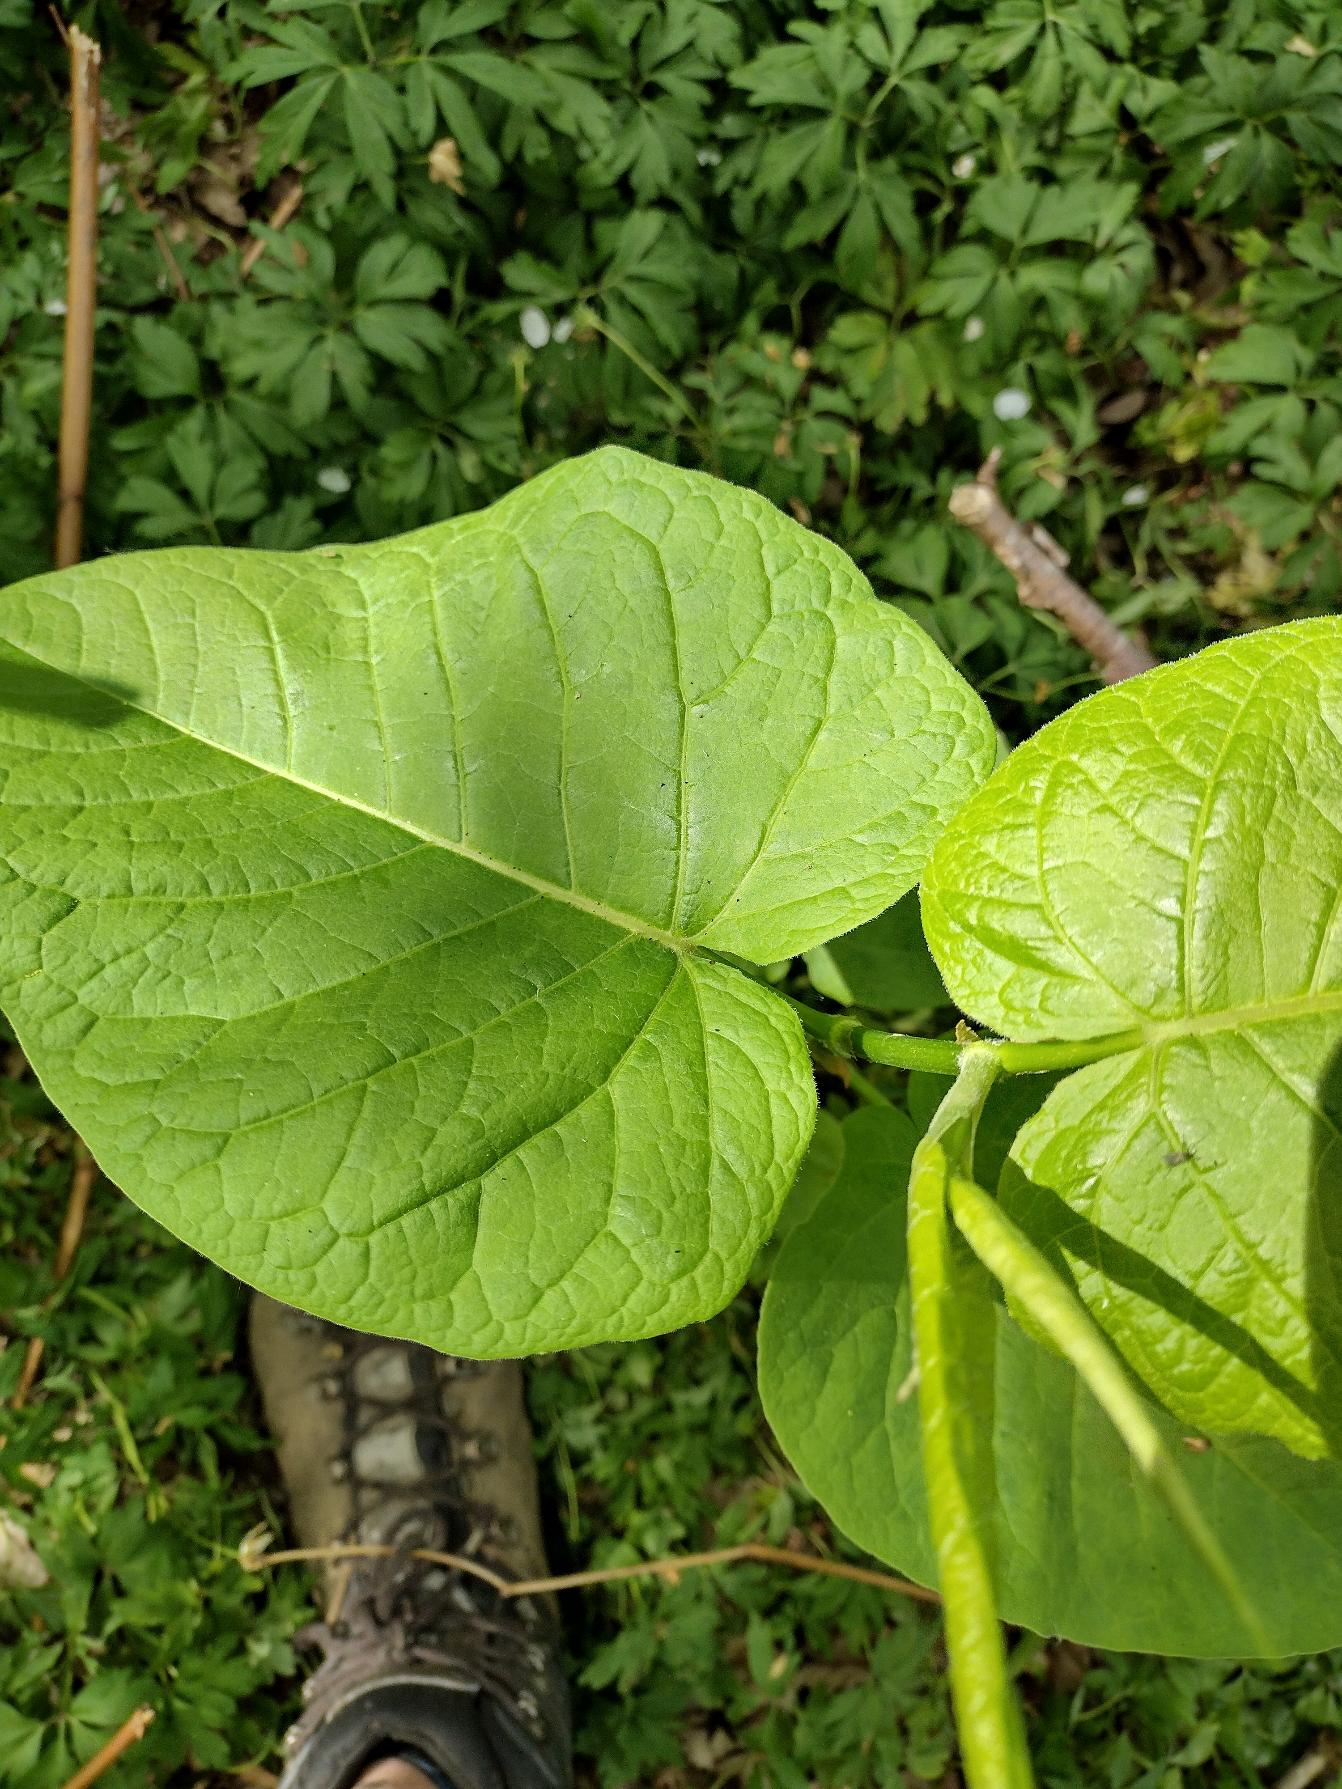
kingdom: Plantae
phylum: Tracheophyta
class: Magnoliopsida
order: Caryophyllales
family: Polygonaceae
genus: Reynoutria
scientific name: Reynoutria sachalinensis
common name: Kæmpe-pileurt
